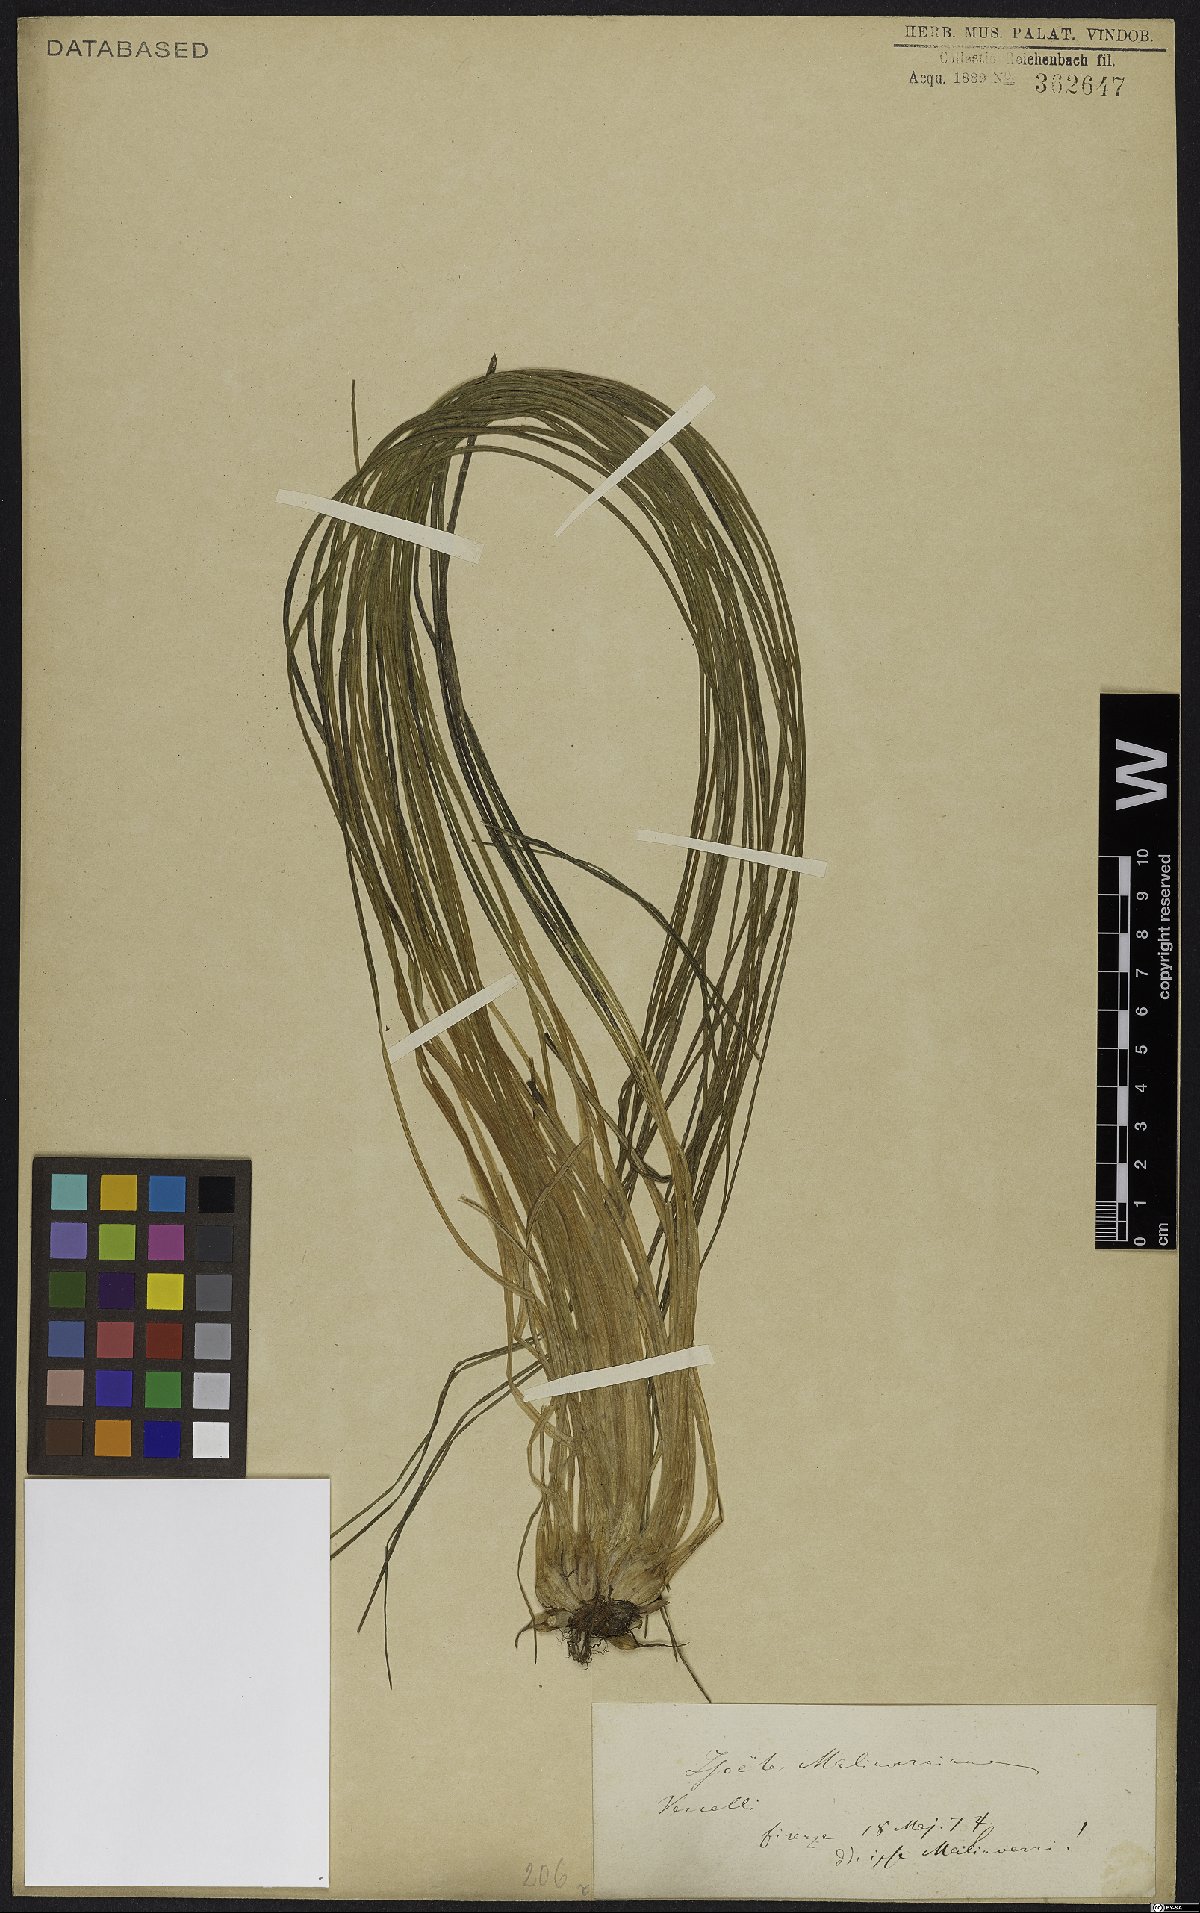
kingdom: Plantae
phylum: Tracheophyta
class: Lycopodiopsida
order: Isoetales
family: Isoetaceae
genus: Isoetes
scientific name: Isoetes malinverniana
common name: Piedmont quillwort
